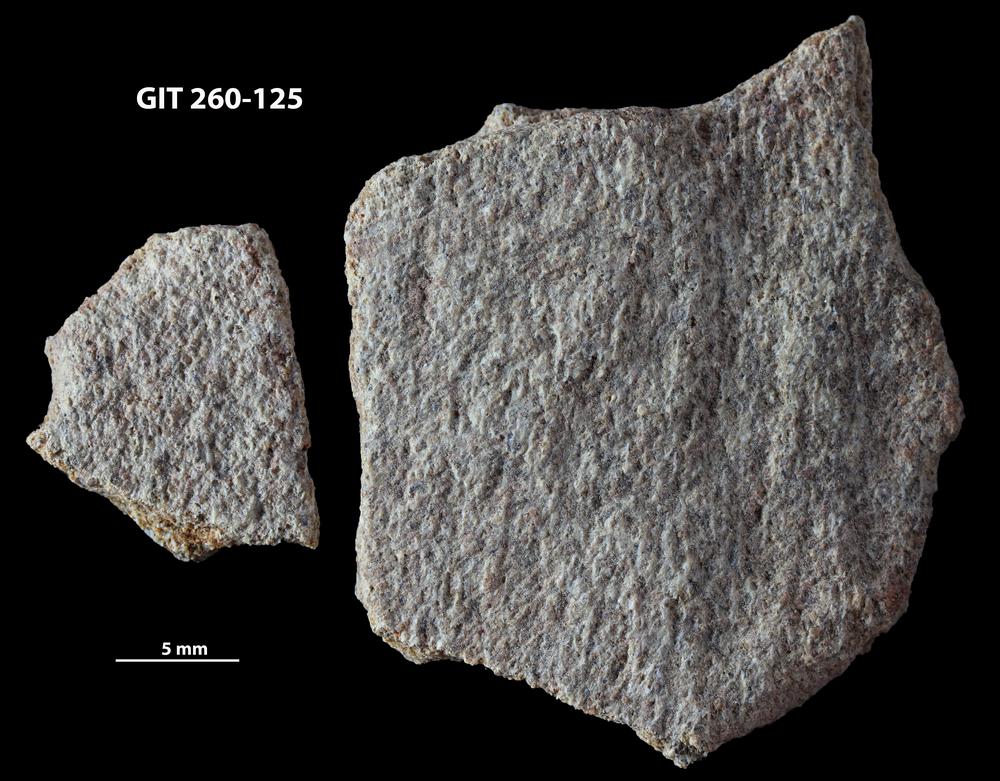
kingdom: Animalia
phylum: Chordata
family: Homostiidae
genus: Homostius
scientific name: Homostius
